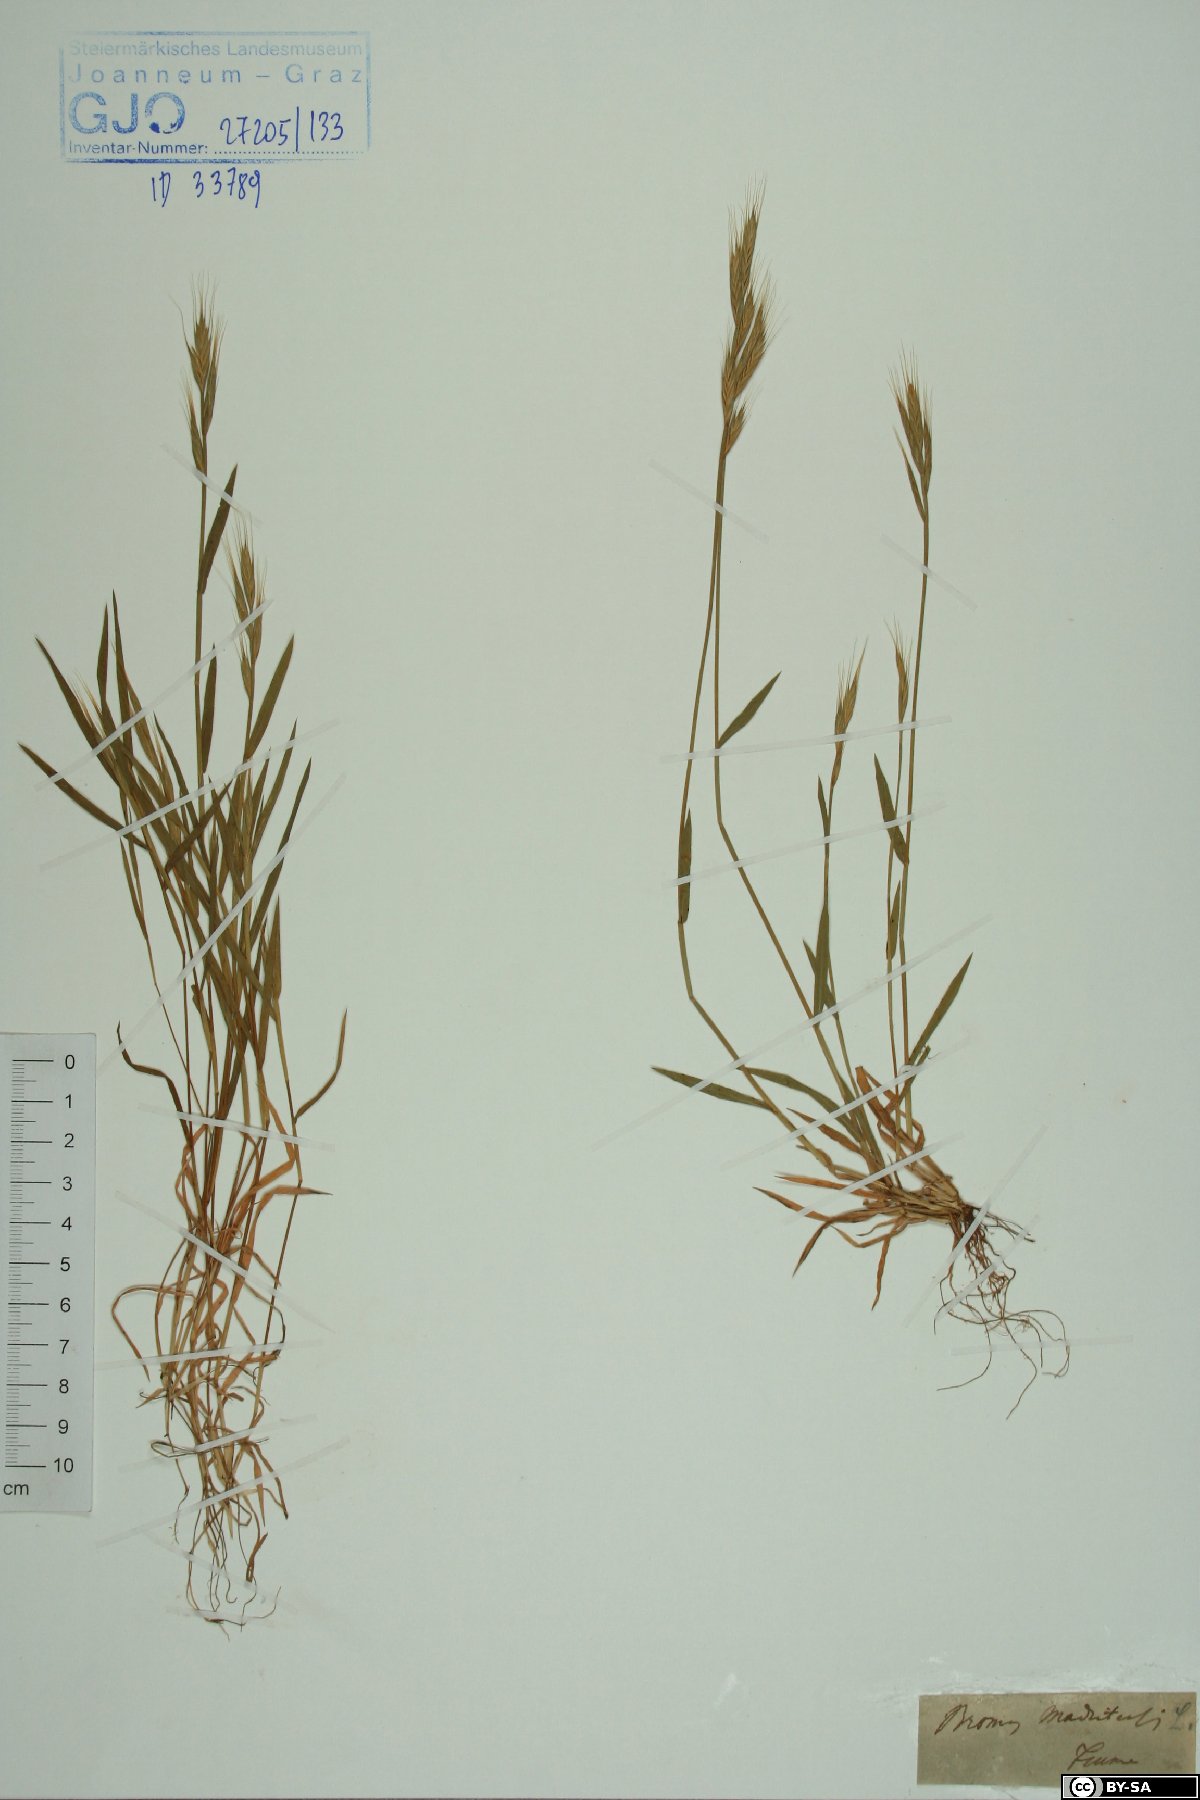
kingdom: Plantae
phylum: Tracheophyta
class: Liliopsida
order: Poales
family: Poaceae
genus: Bromus
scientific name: Bromus madritensis
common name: Compact brome
